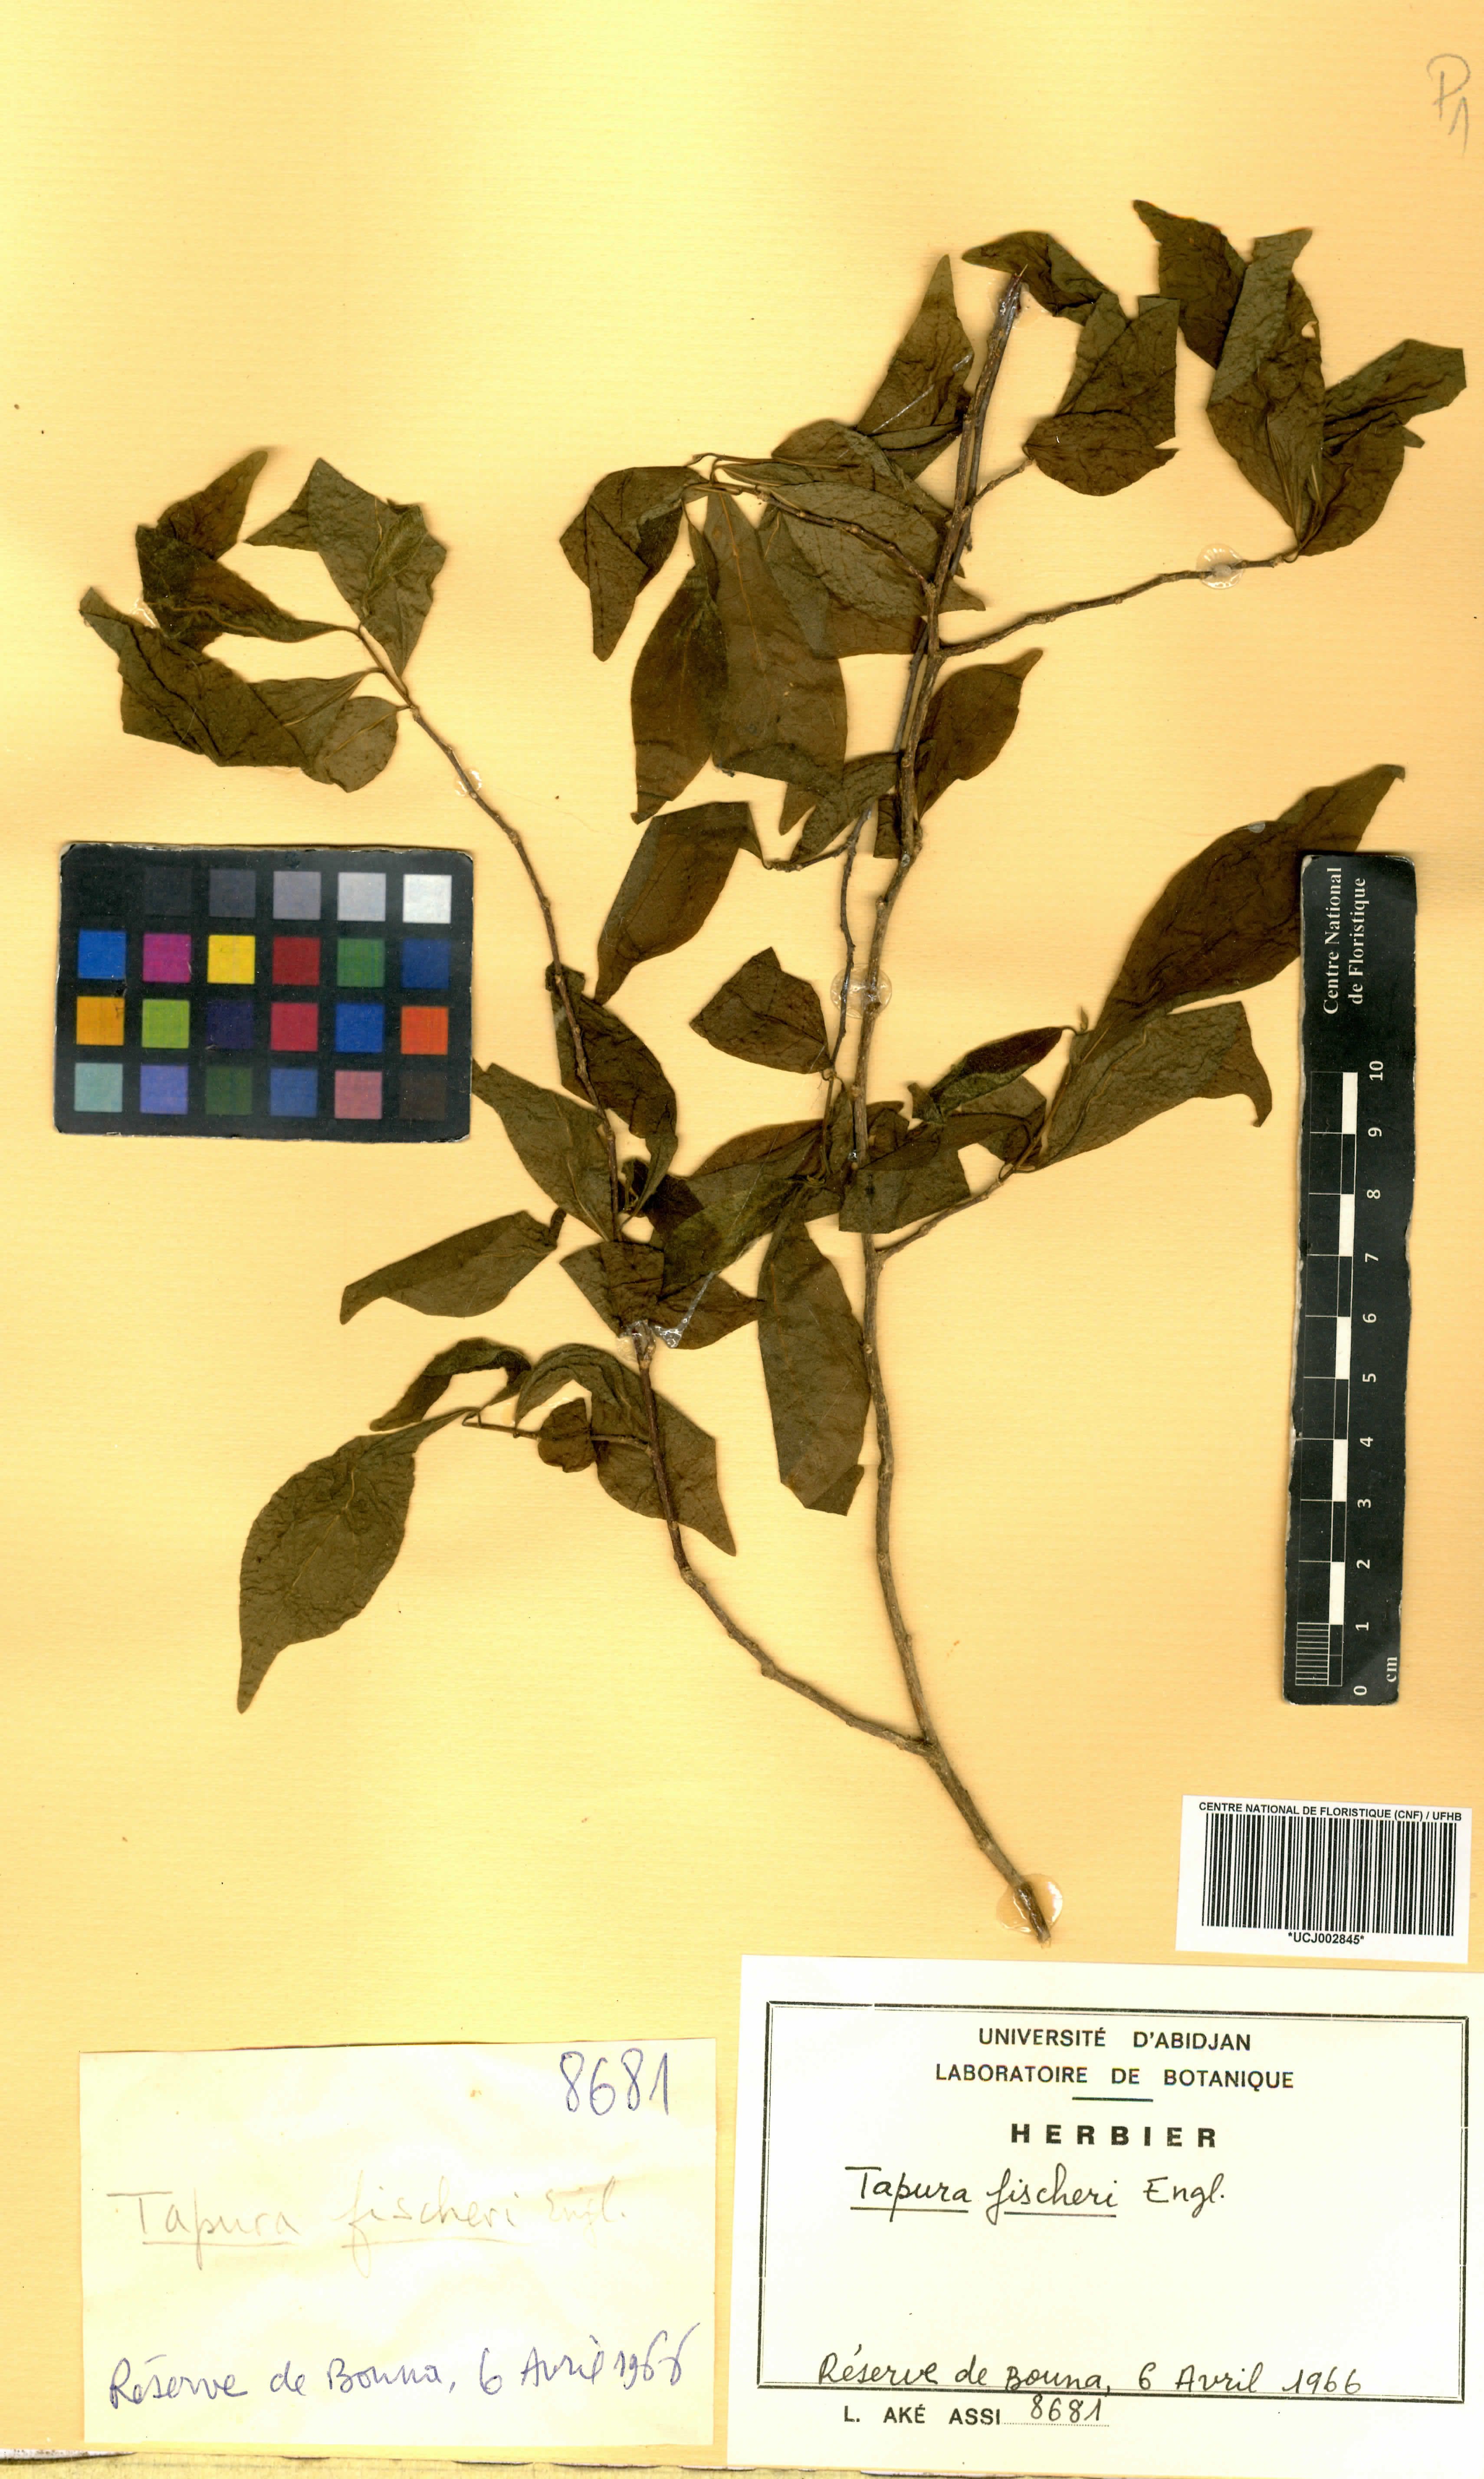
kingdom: Plantae
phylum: Tracheophyta
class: Magnoliopsida
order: Malpighiales
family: Dichapetalaceae
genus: Tapura
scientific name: Tapura fischeri
